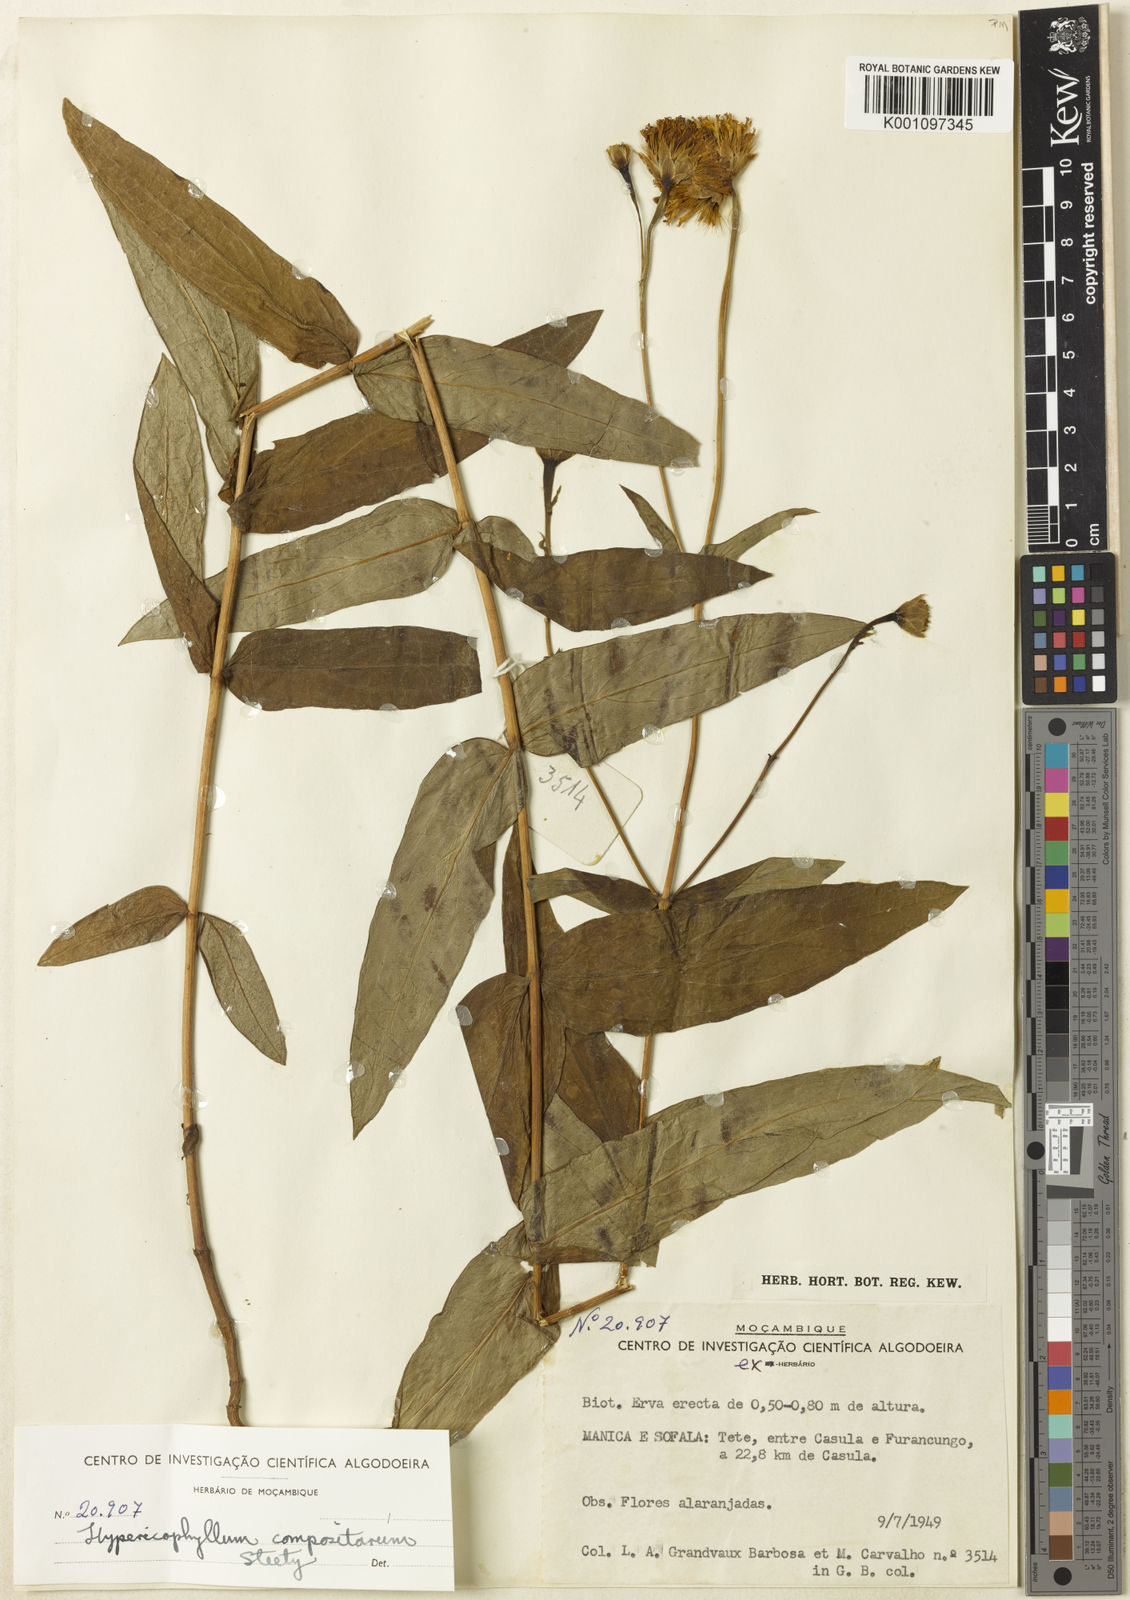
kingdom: Plantae
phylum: Tracheophyta
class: Magnoliopsida
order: Asterales
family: Asteraceae
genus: Hypericophyllum
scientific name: Hypericophyllum compositarum
